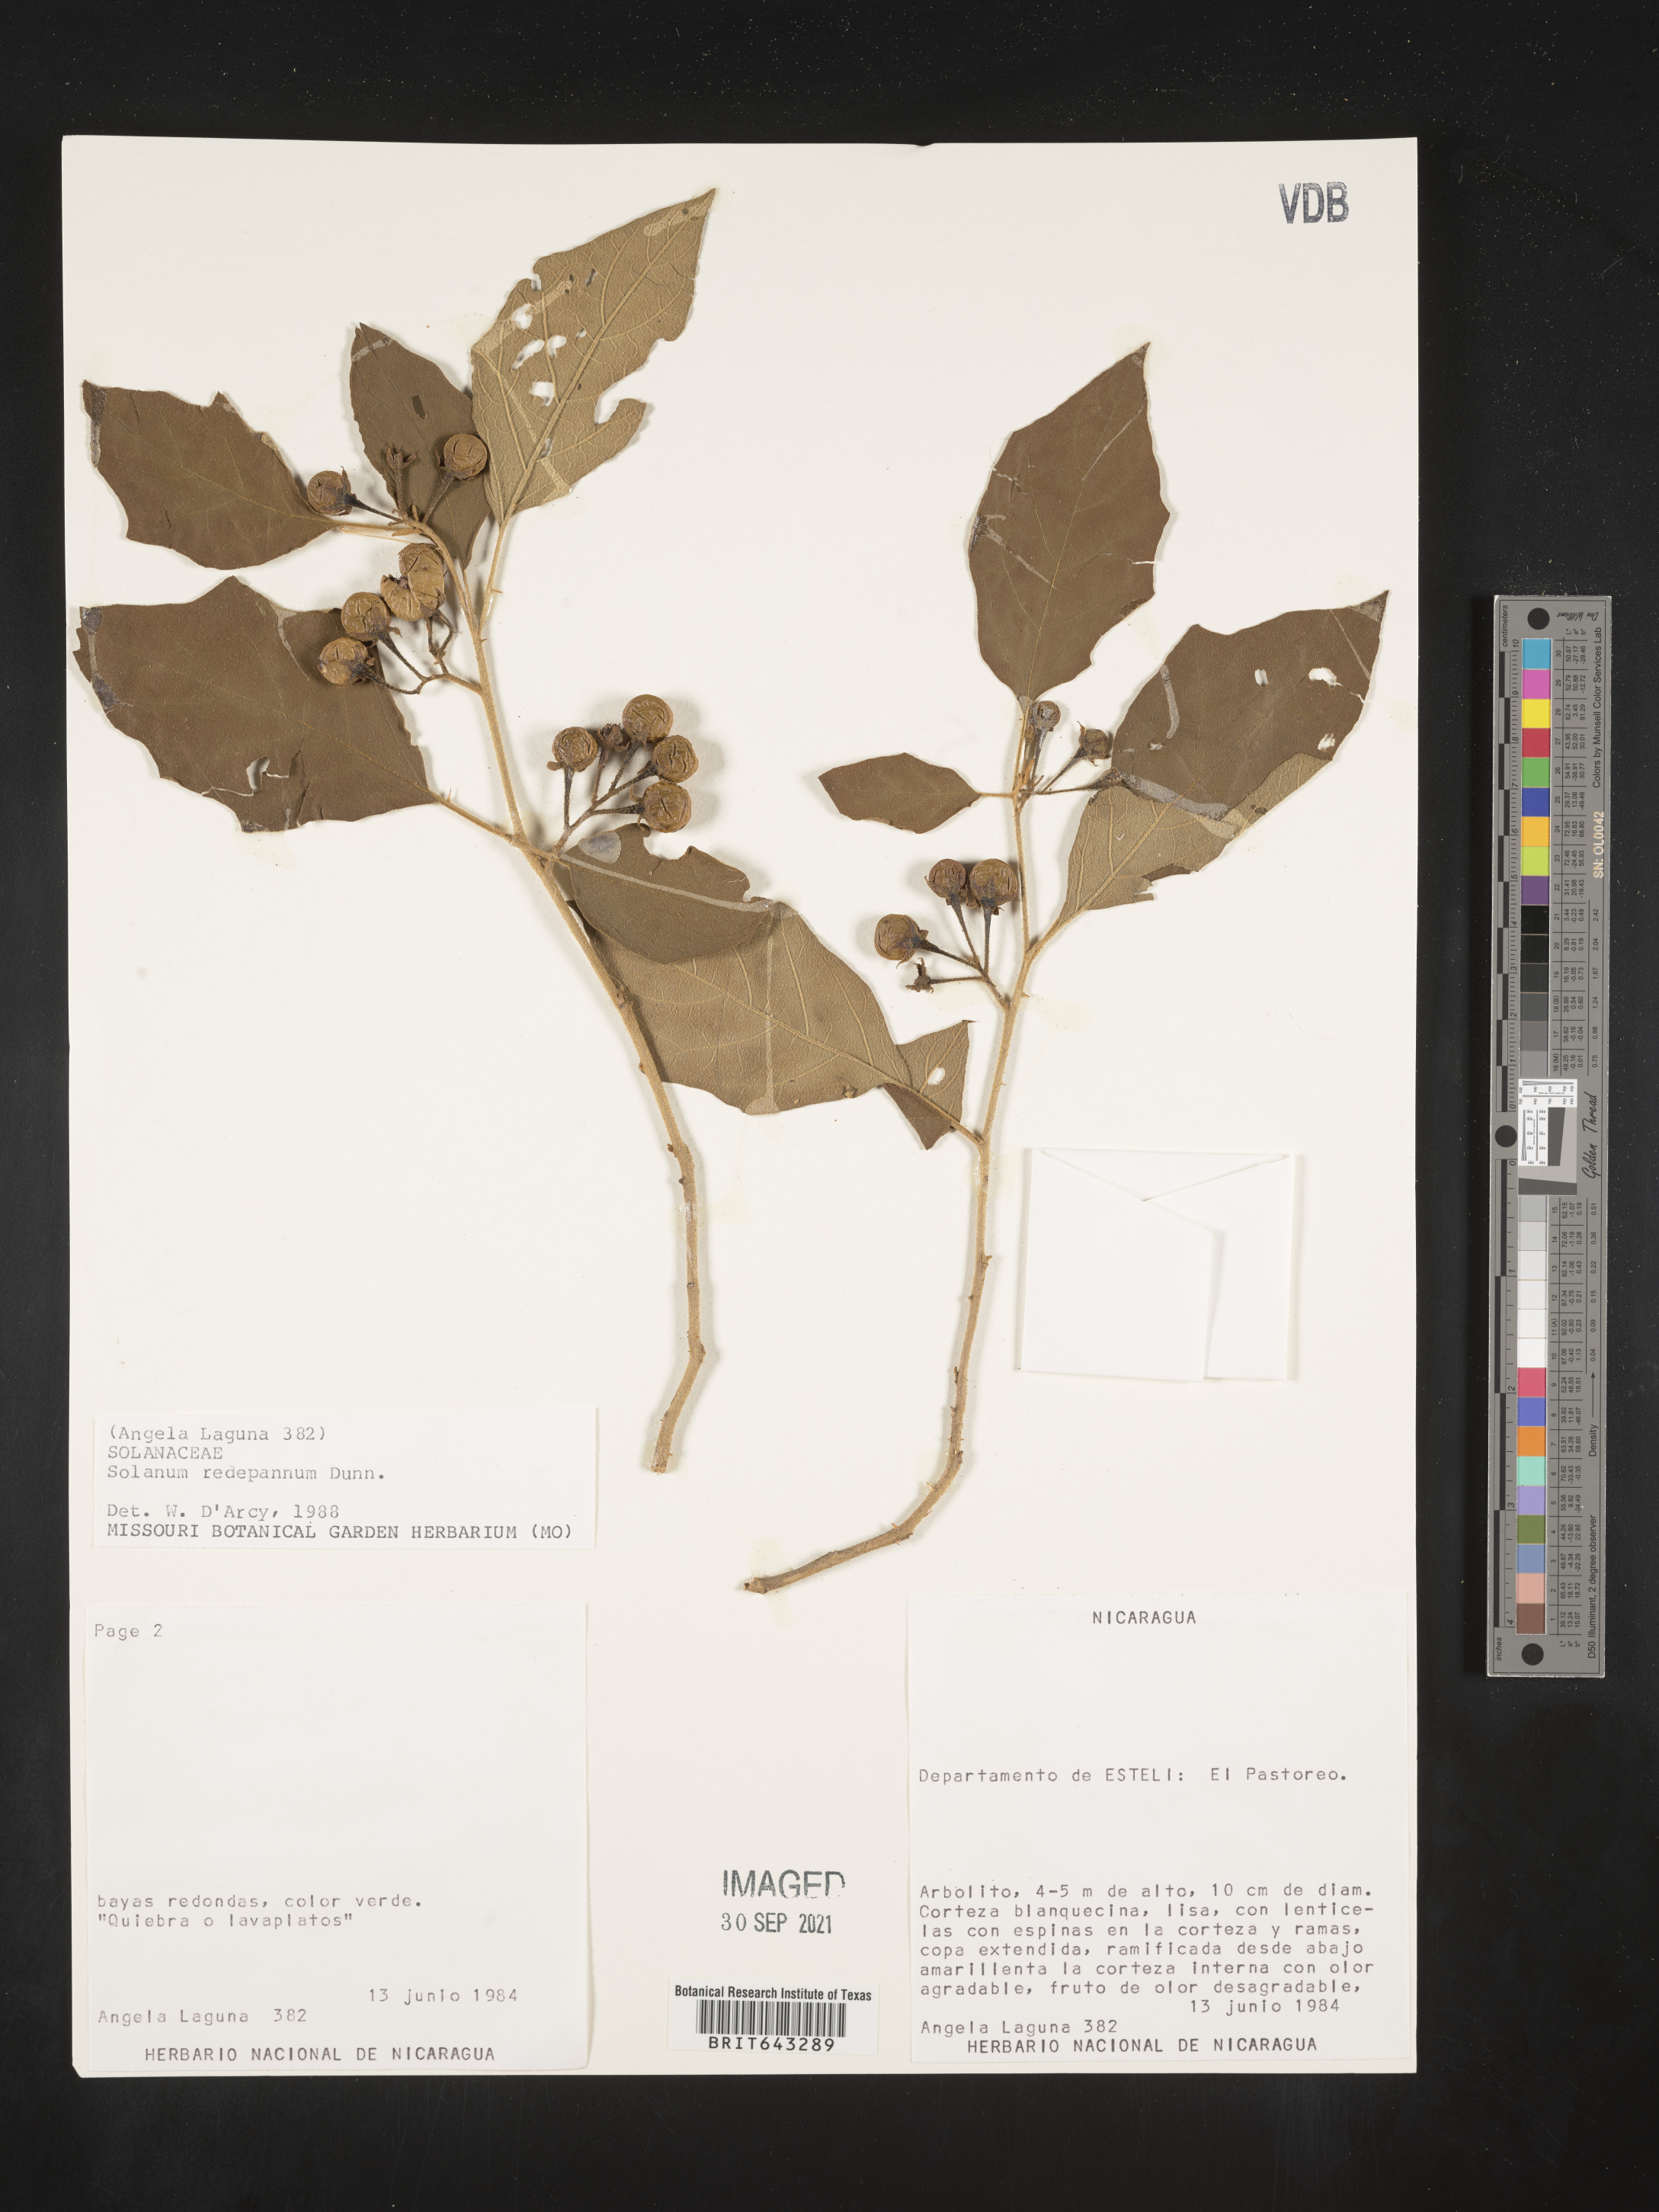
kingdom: Plantae
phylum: Tracheophyta
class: Magnoliopsida
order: Solanales
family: Solanaceae
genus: Solanum
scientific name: Solanum
